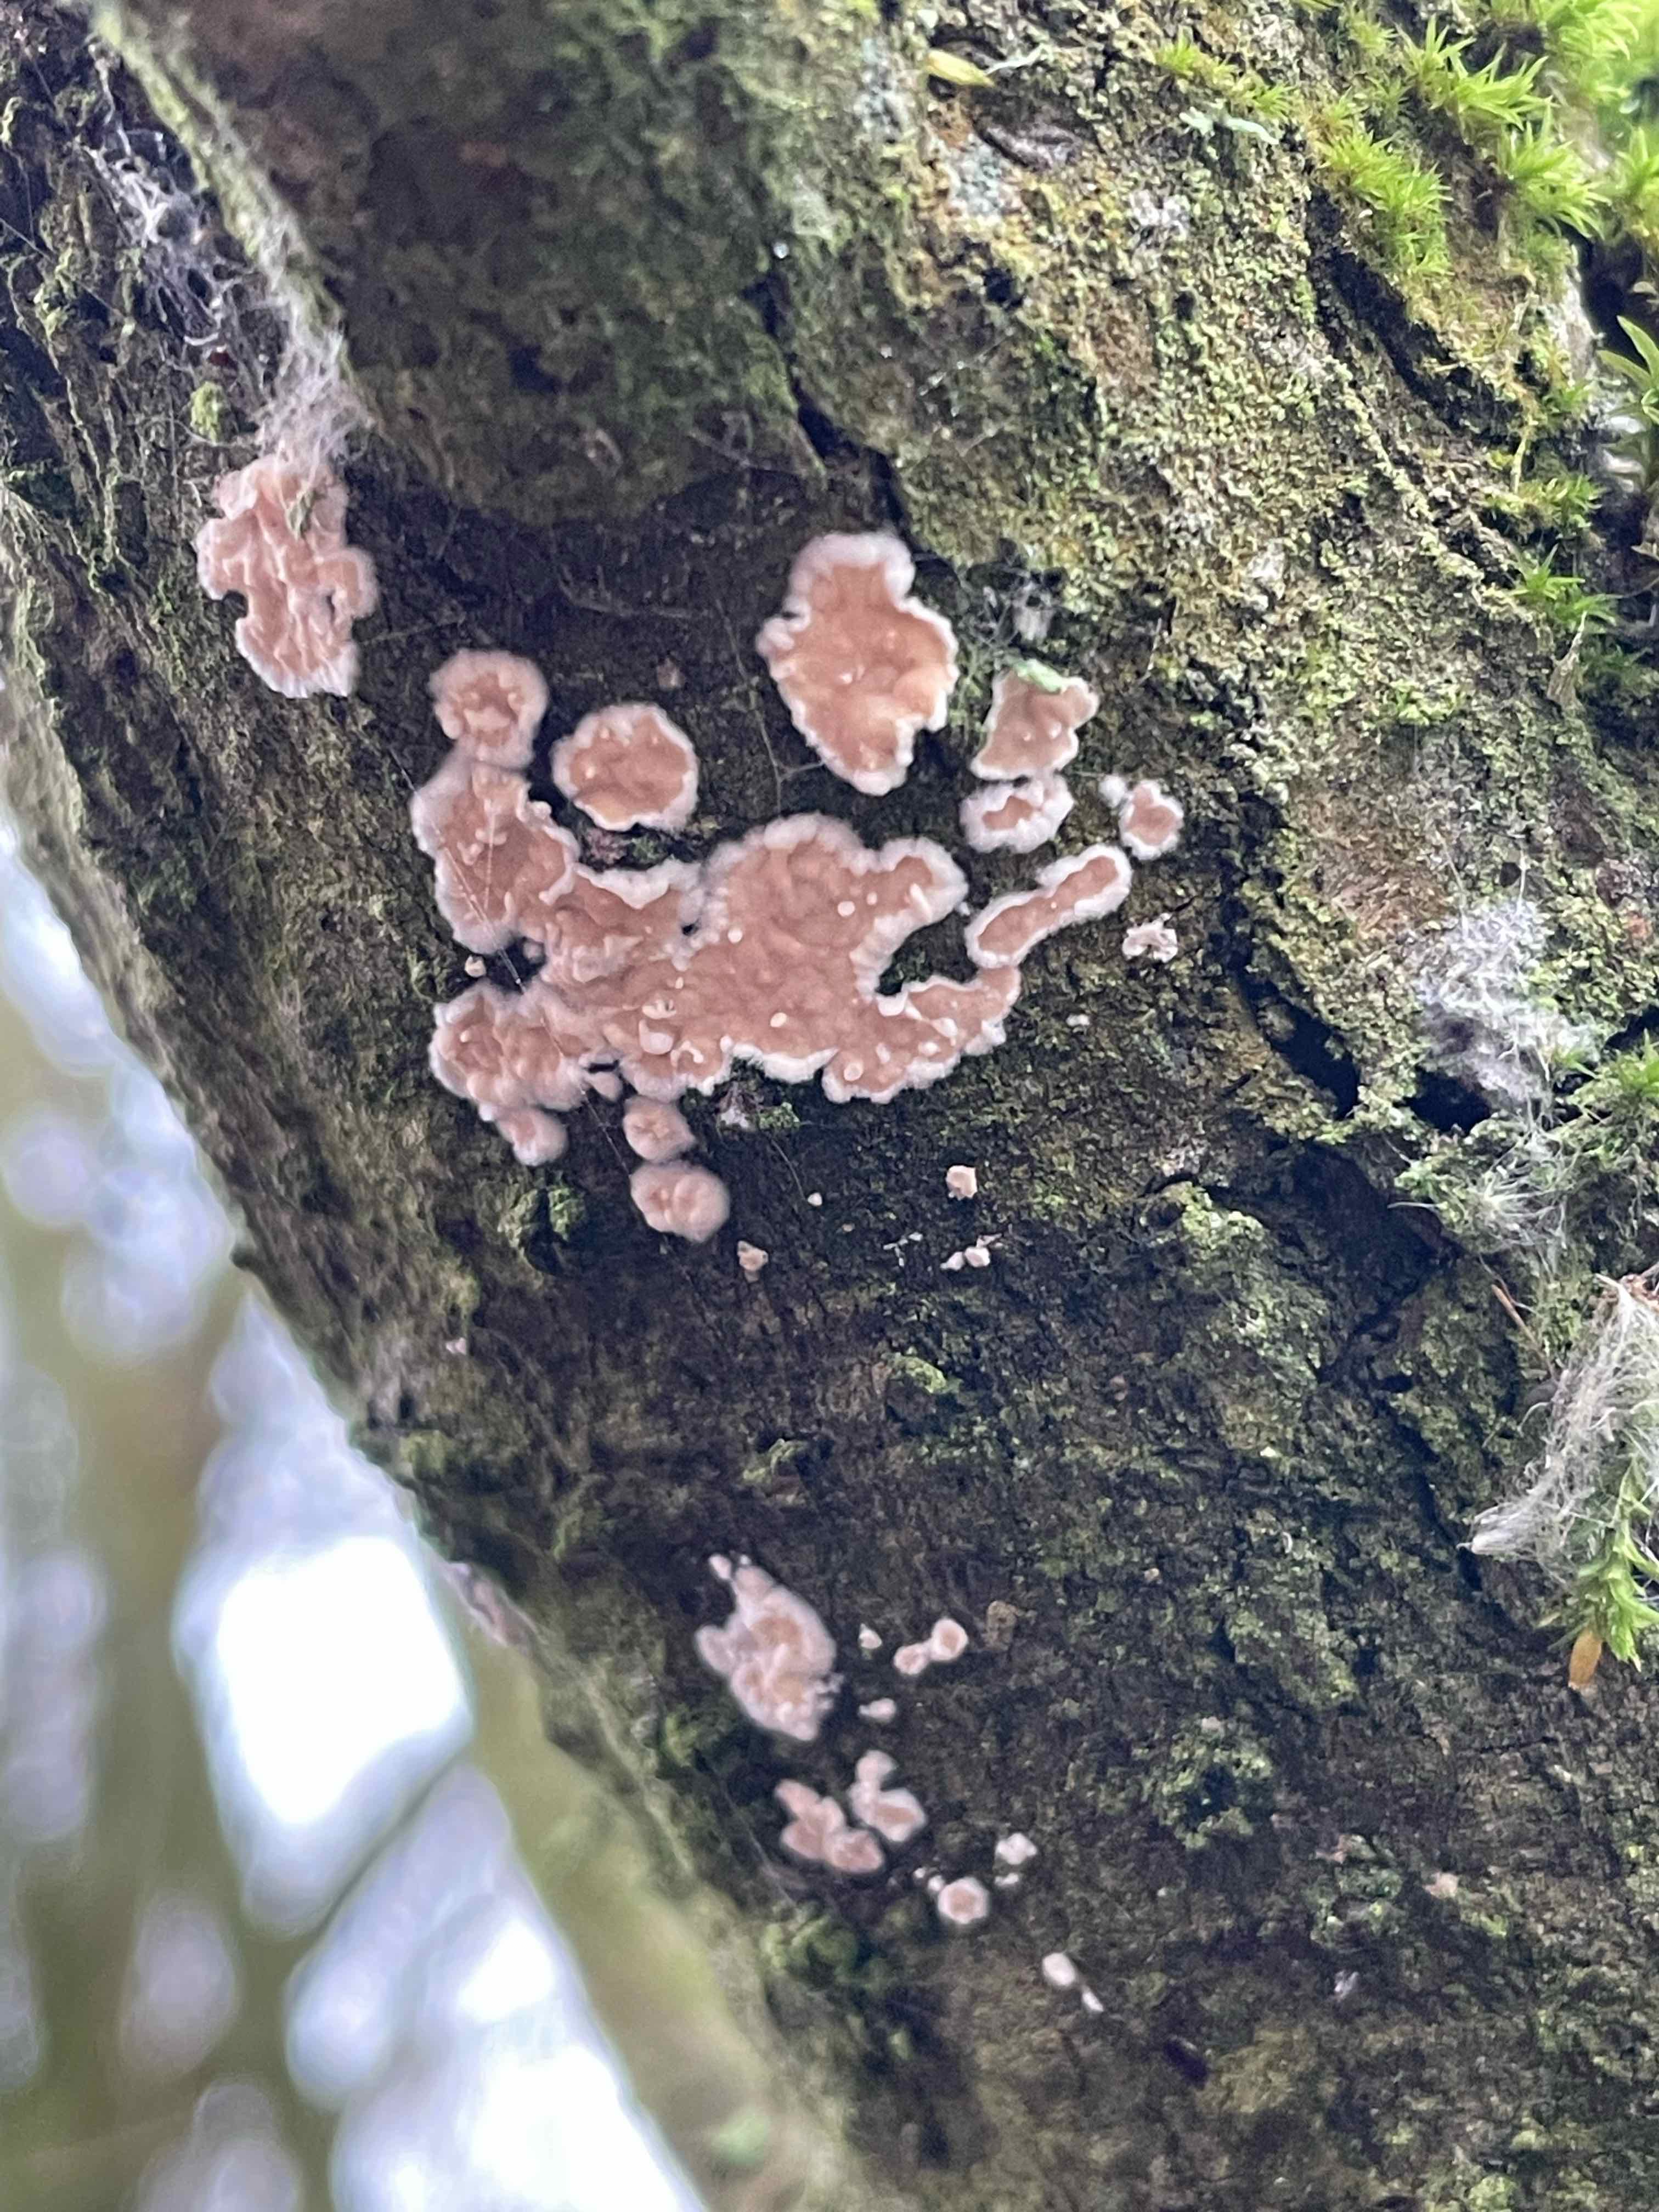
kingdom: Fungi
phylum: Basidiomycota
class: Agaricomycetes
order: Corticiales
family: Corticiaceae
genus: Corticium
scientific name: Corticium roseum
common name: rosa barkskind
